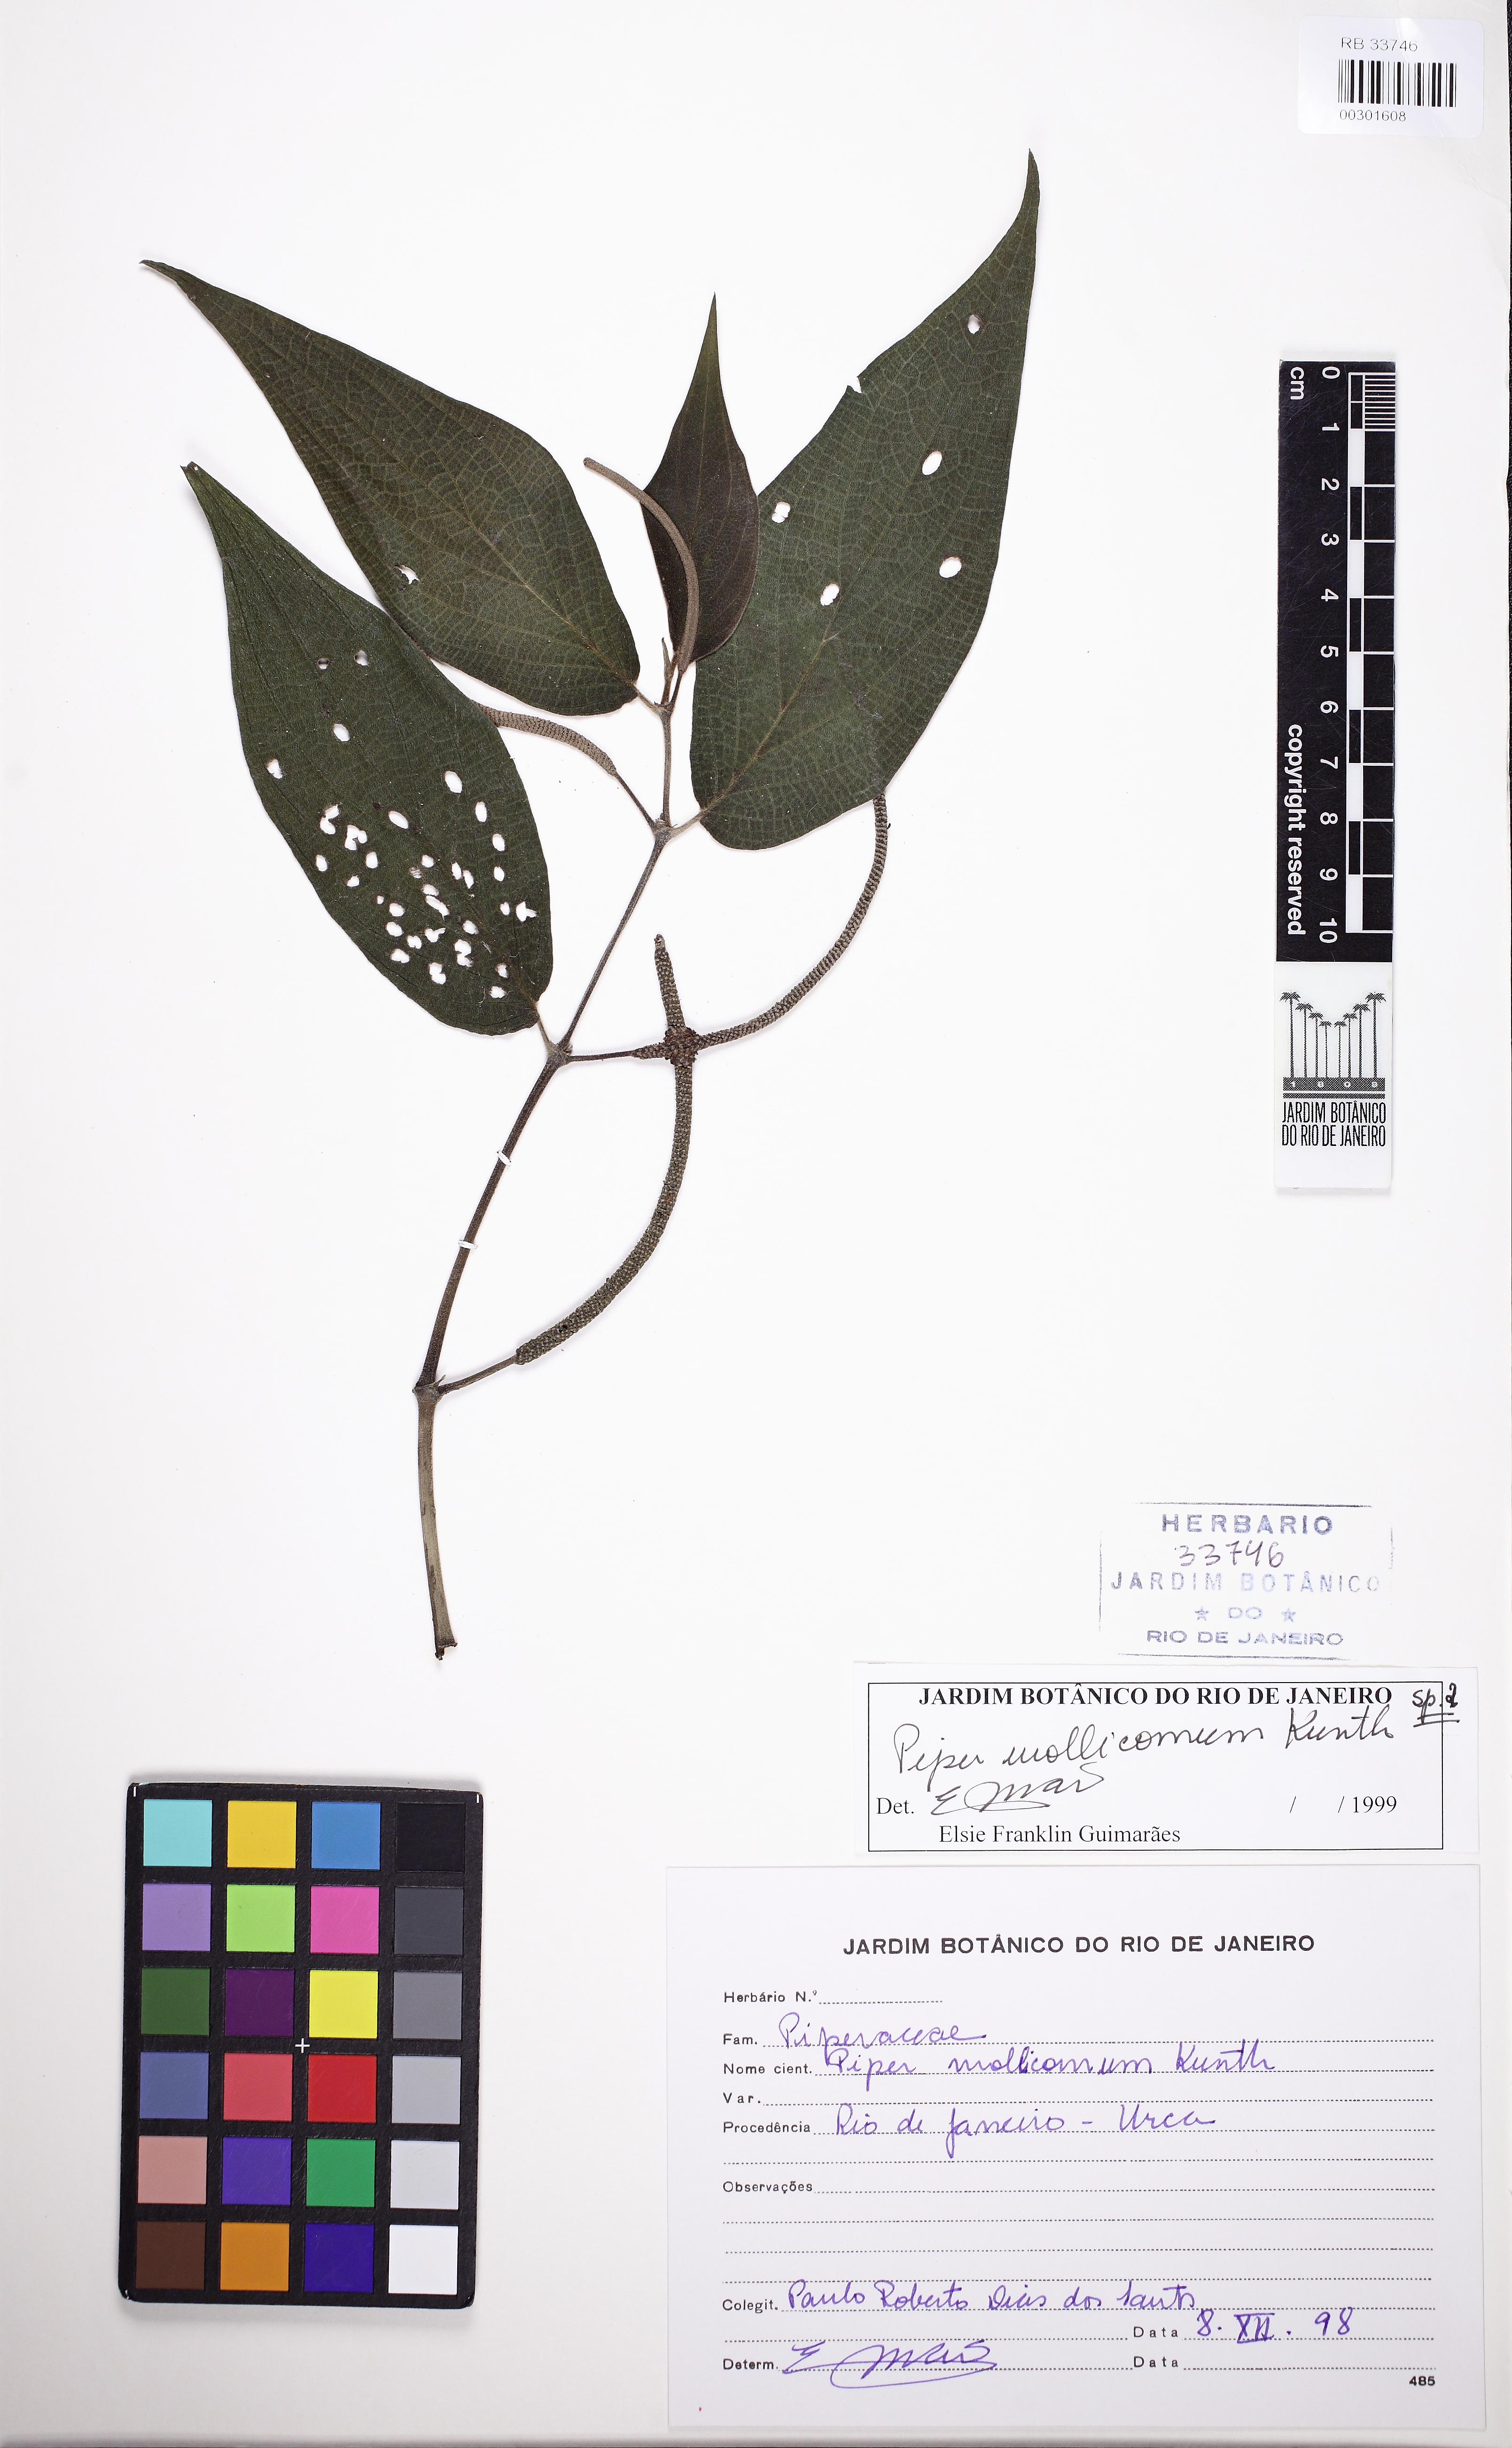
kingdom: Plantae
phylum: Tracheophyta
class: Liliopsida
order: Poales
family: Poaceae
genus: Panicum
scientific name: Panicum olyroides
